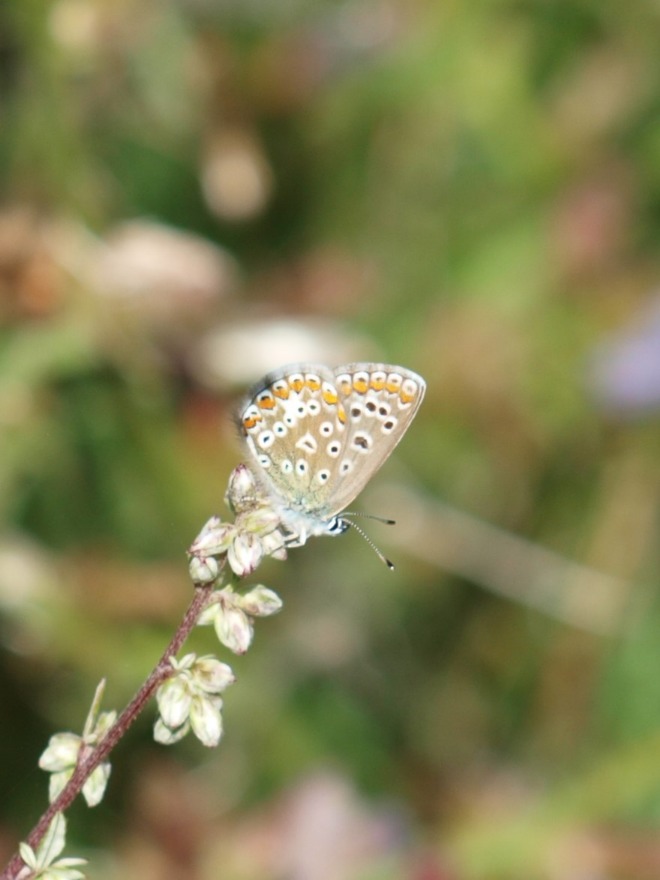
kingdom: Animalia
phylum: Arthropoda
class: Insecta
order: Lepidoptera
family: Lycaenidae
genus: Polyommatus
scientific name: Polyommatus icarus
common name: Almindelig blåfugl
